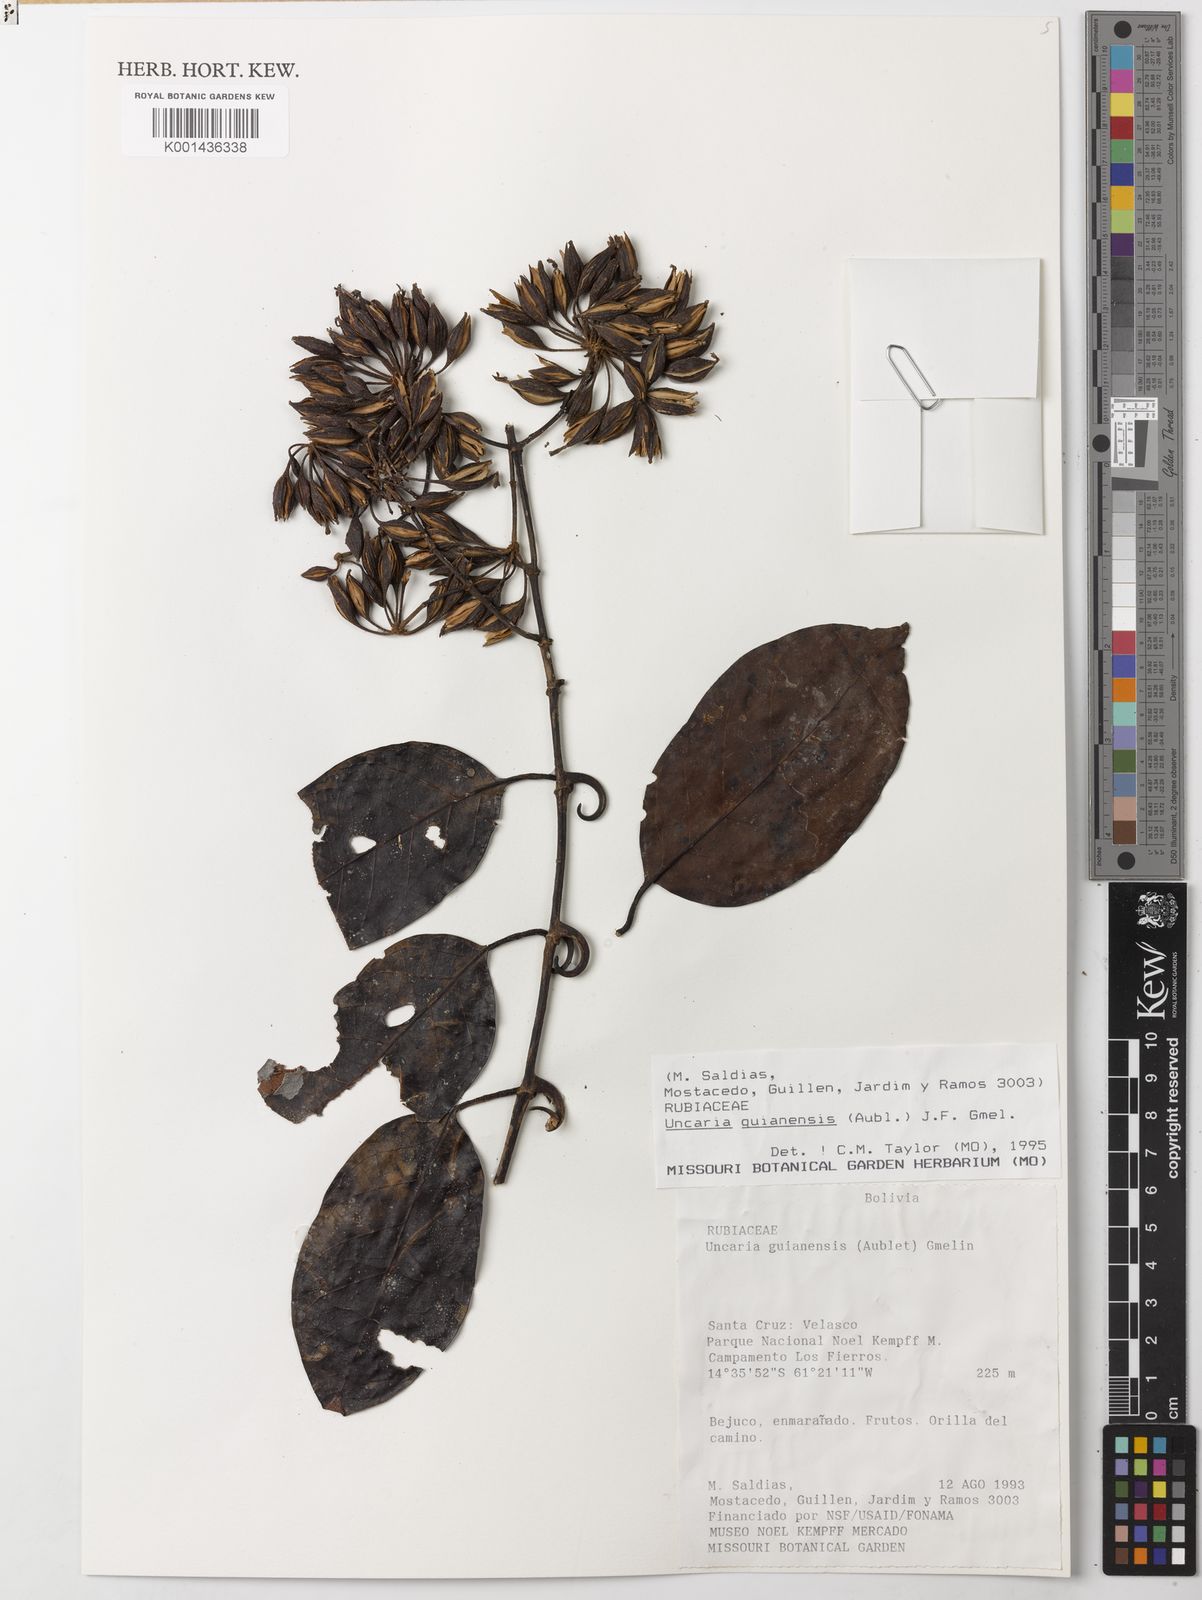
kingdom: Plantae
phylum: Tracheophyta
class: Magnoliopsida
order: Gentianales
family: Rubiaceae
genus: Uncaria
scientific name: Uncaria guianensis
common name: Cat's-claw
